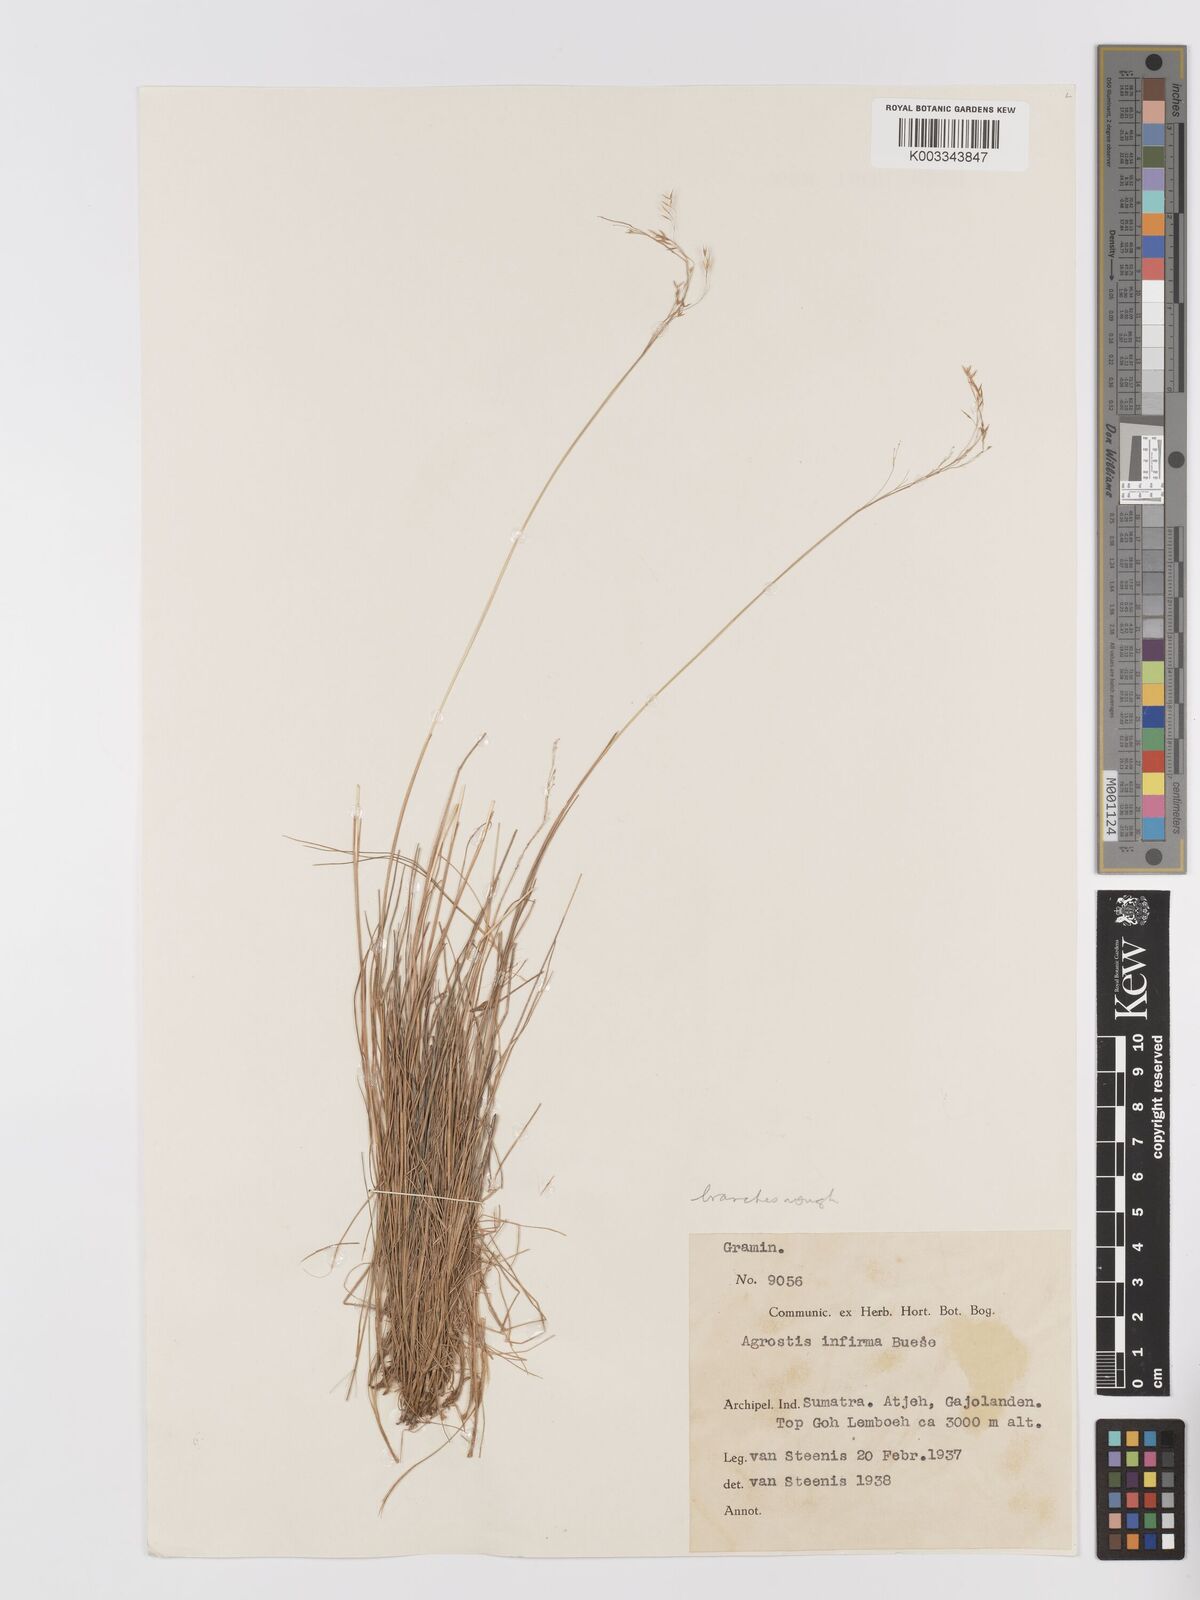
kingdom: Plantae
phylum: Tracheophyta
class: Liliopsida
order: Poales
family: Poaceae
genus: Agrostis
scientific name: Agrostis infirma
